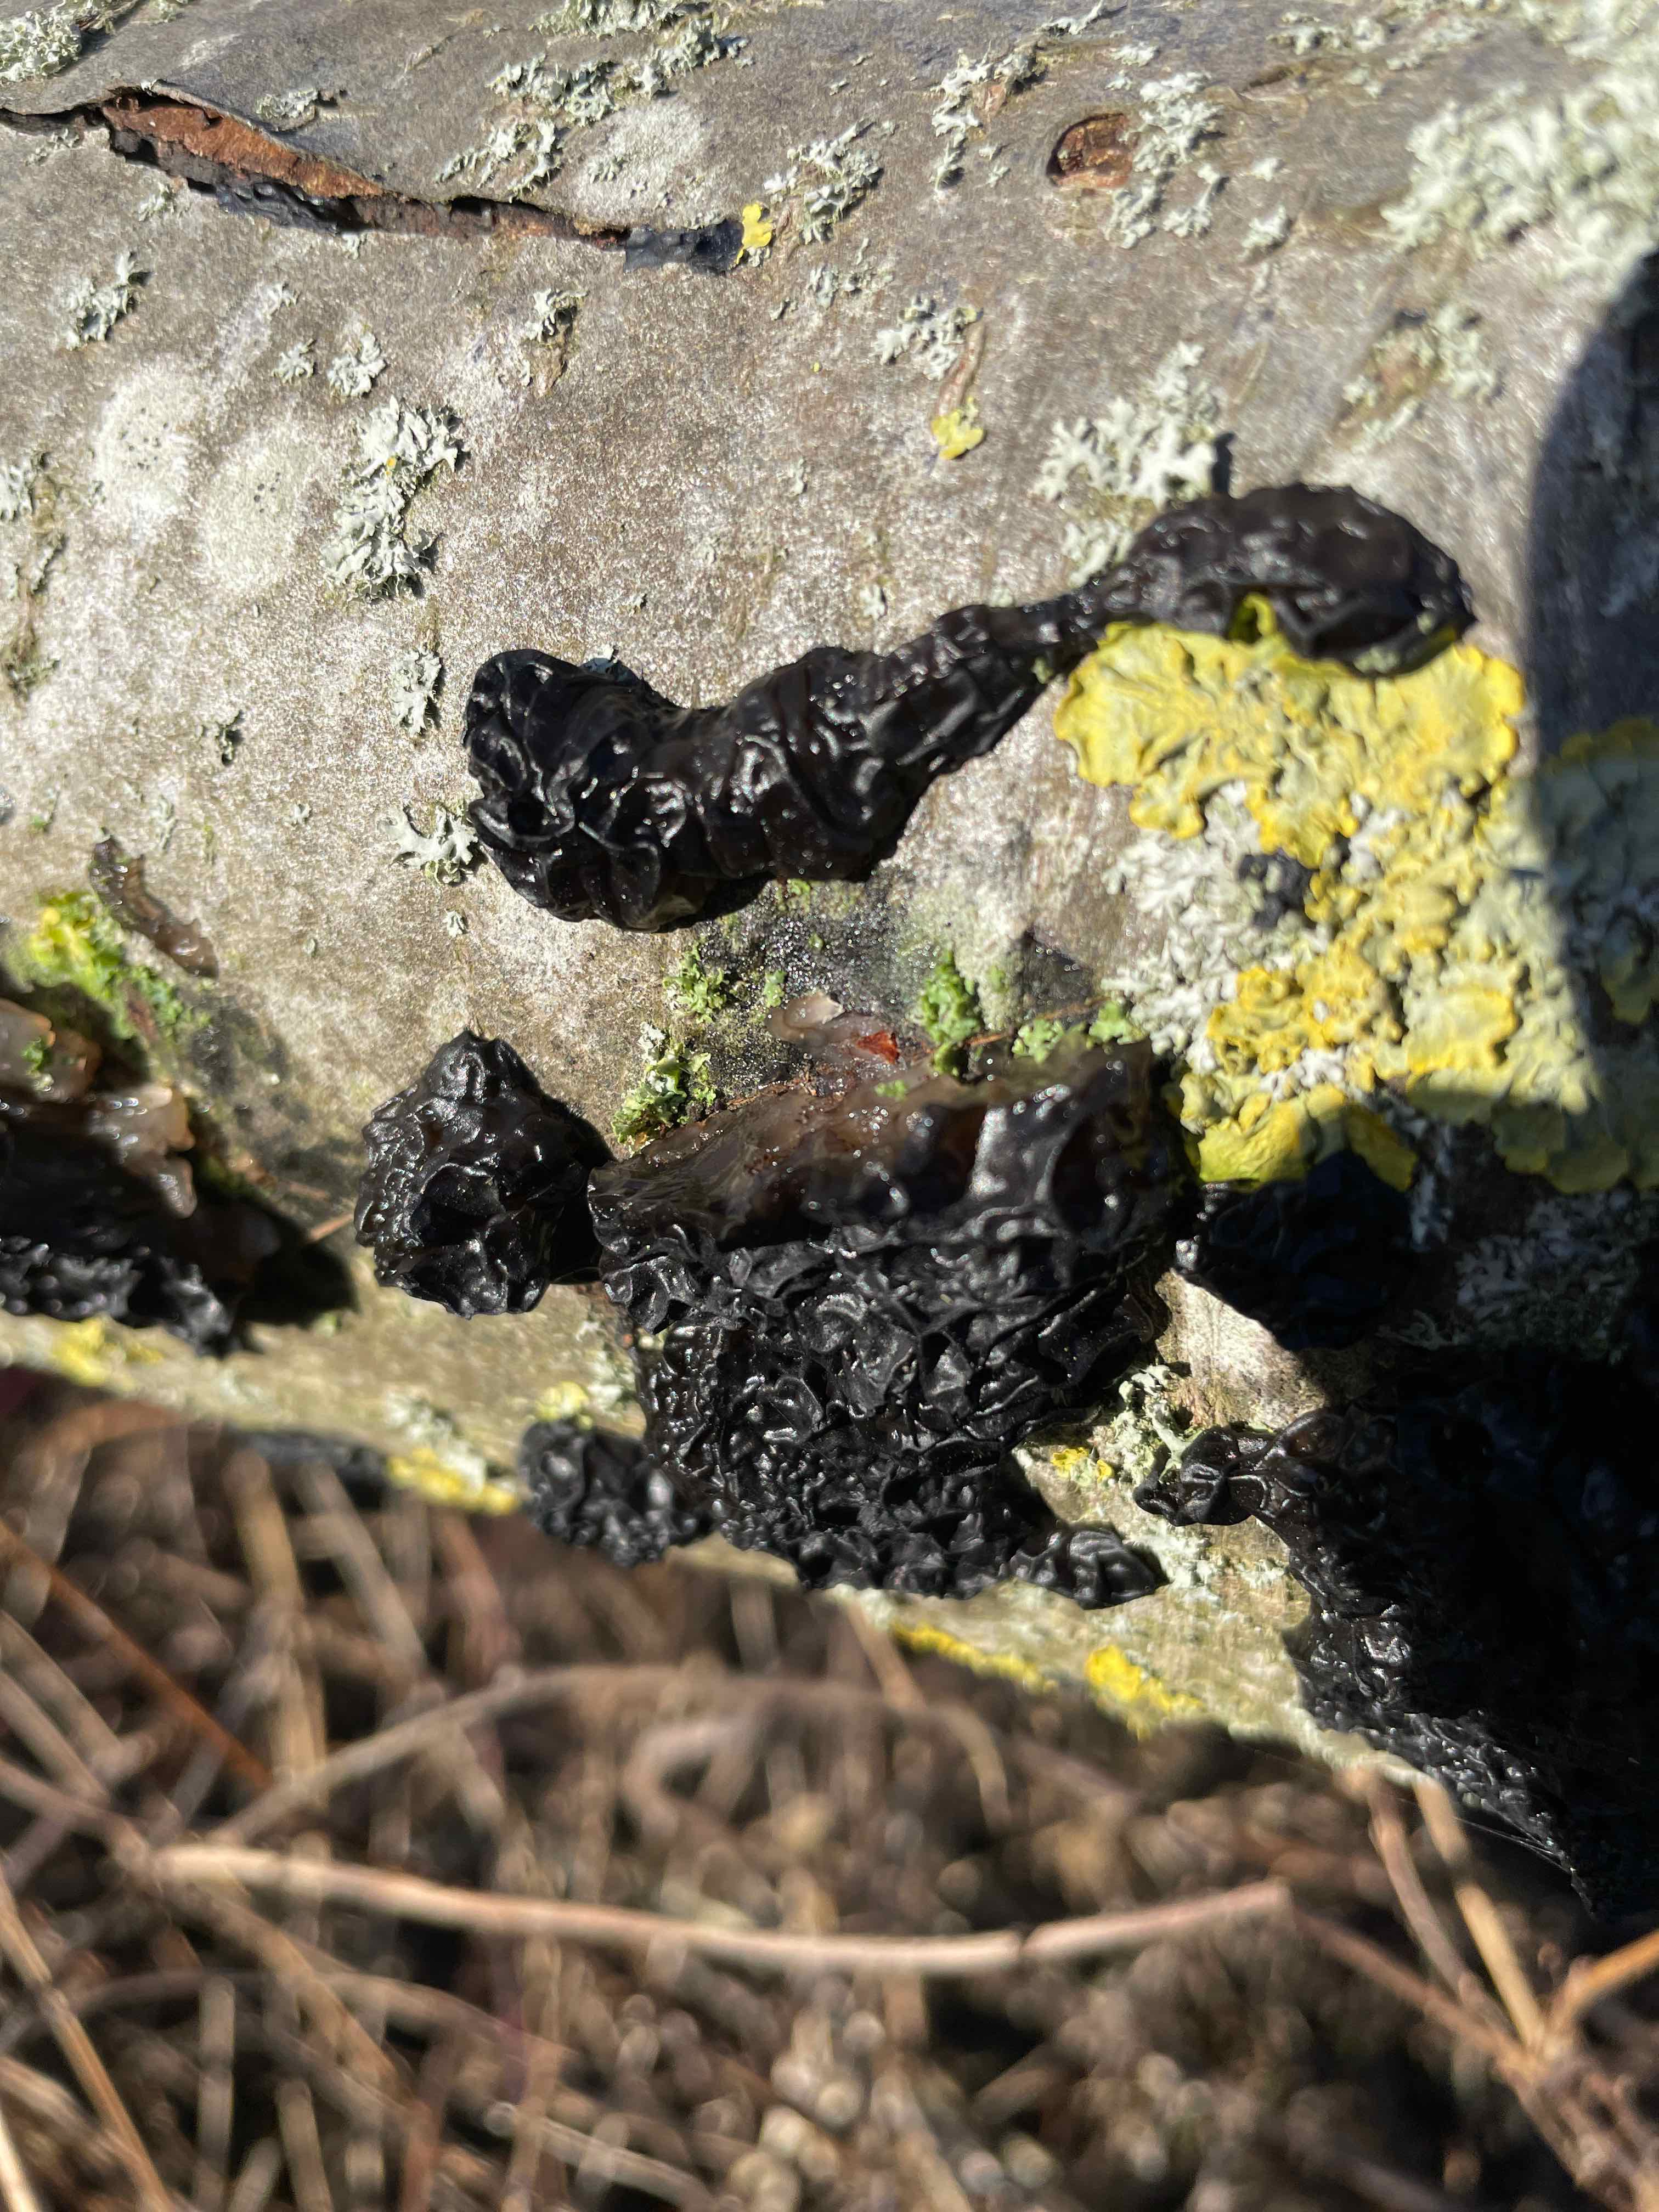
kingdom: Fungi
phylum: Basidiomycota
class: Agaricomycetes
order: Auriculariales
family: Auriculariaceae
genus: Exidia
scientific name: Exidia nigricans
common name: almindelig bævretop
